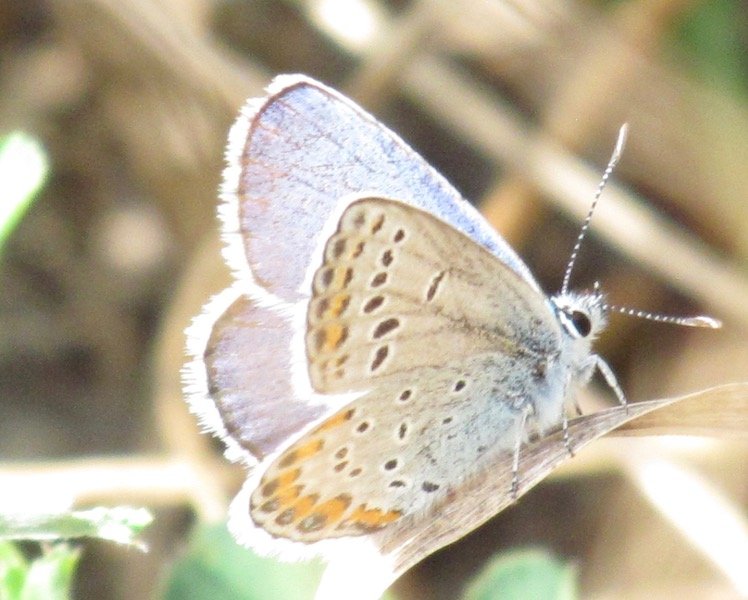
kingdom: Animalia
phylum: Arthropoda
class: Insecta
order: Lepidoptera
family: Lycaenidae
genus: Lycaeides
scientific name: Lycaeides melissa
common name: Melissa Blue
